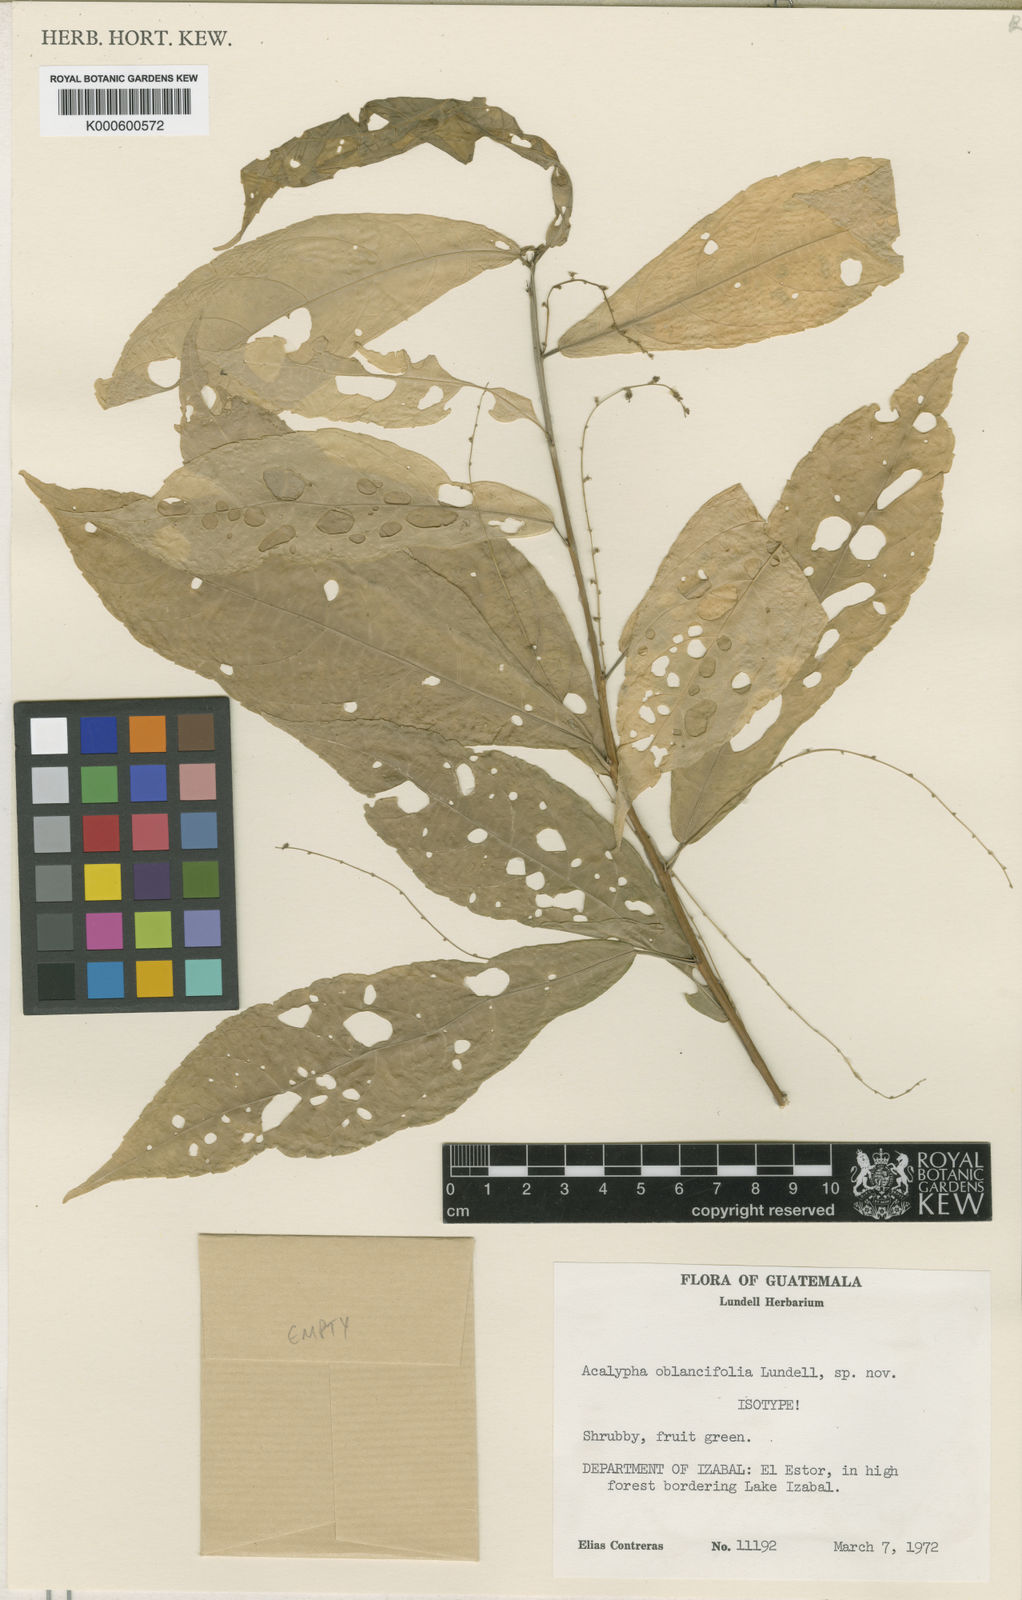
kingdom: Plantae
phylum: Tracheophyta
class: Magnoliopsida
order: Malpighiales
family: Euphorbiaceae
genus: Acalypha
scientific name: Acalypha oblancifolia
